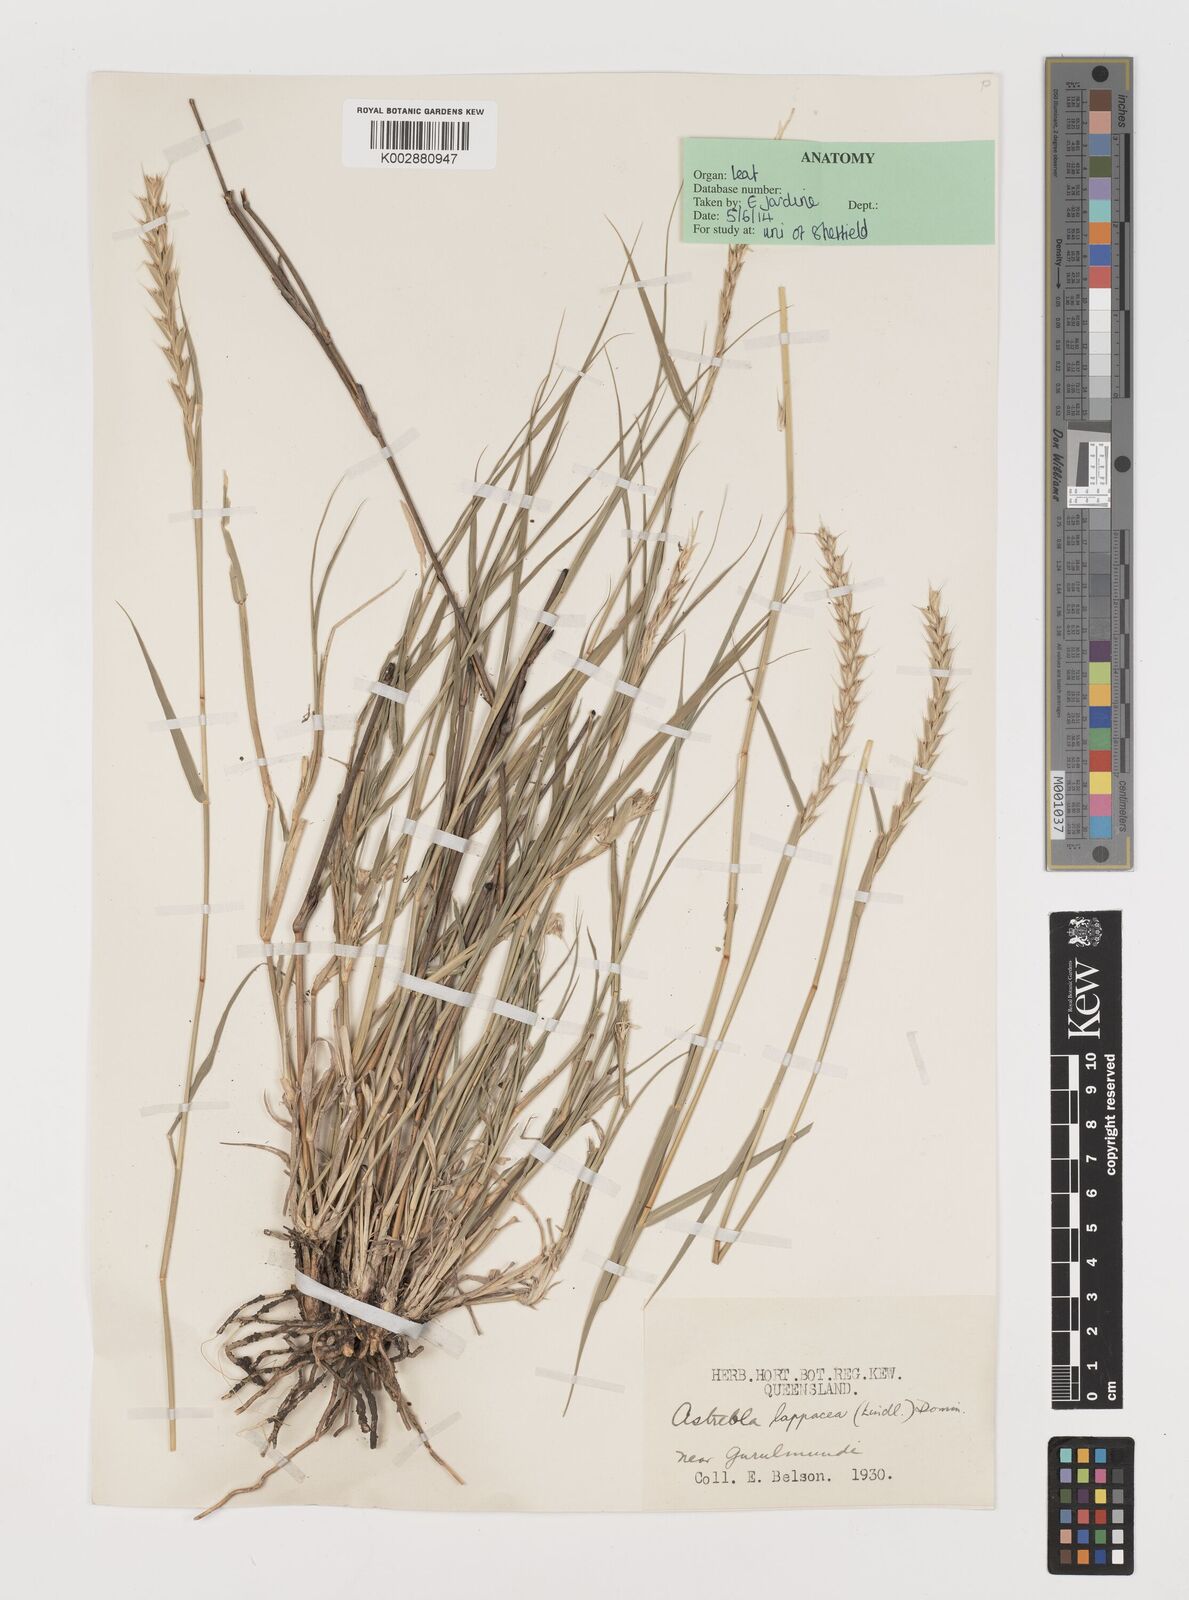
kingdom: Plantae
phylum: Tracheophyta
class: Liliopsida
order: Poales
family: Poaceae
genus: Astrebla
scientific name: Astrebla lappacea
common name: Curly mitchell grass
